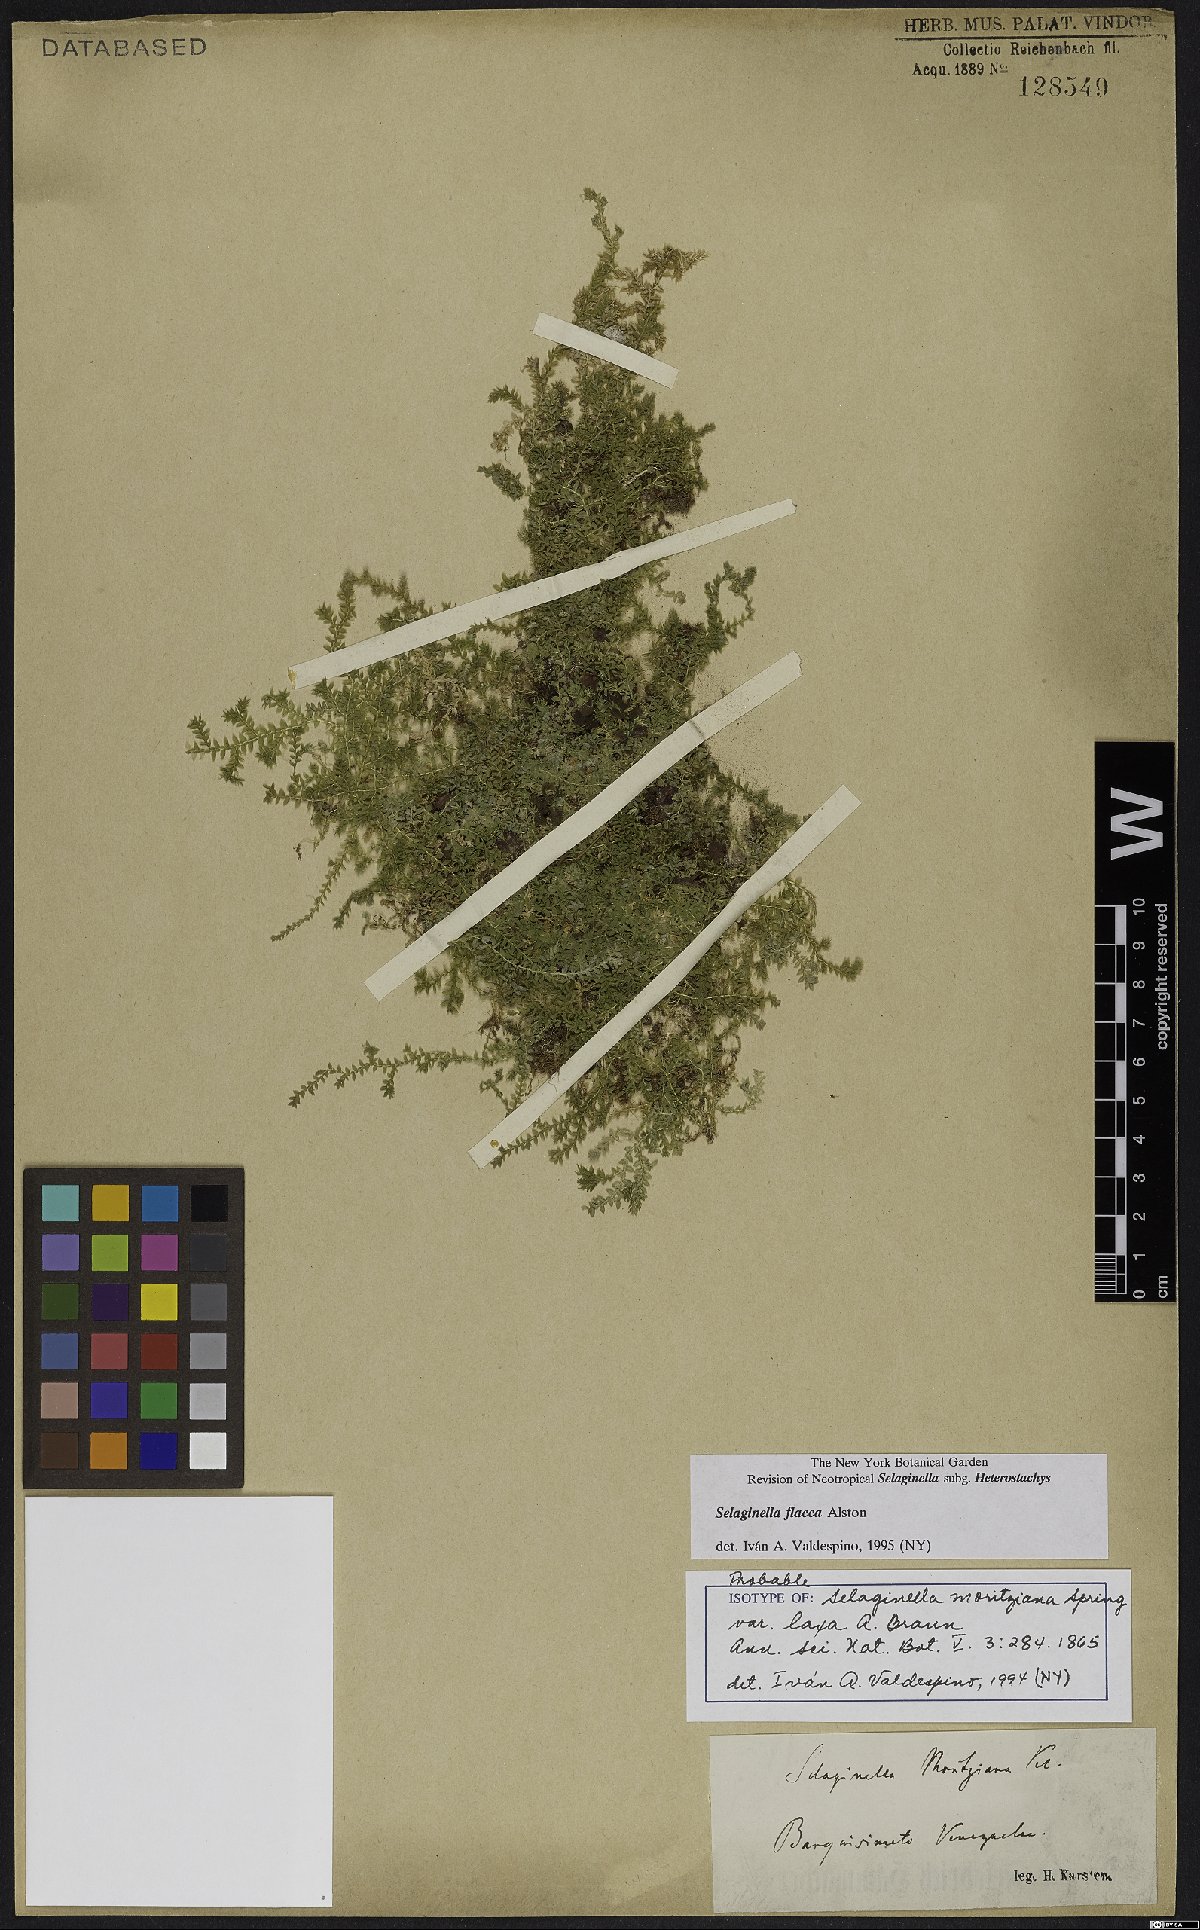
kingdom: Plantae
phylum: Tracheophyta
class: Lycopodiopsida
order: Selaginellales
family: Selaginellaceae
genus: Selaginella
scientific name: Selaginella flacca
